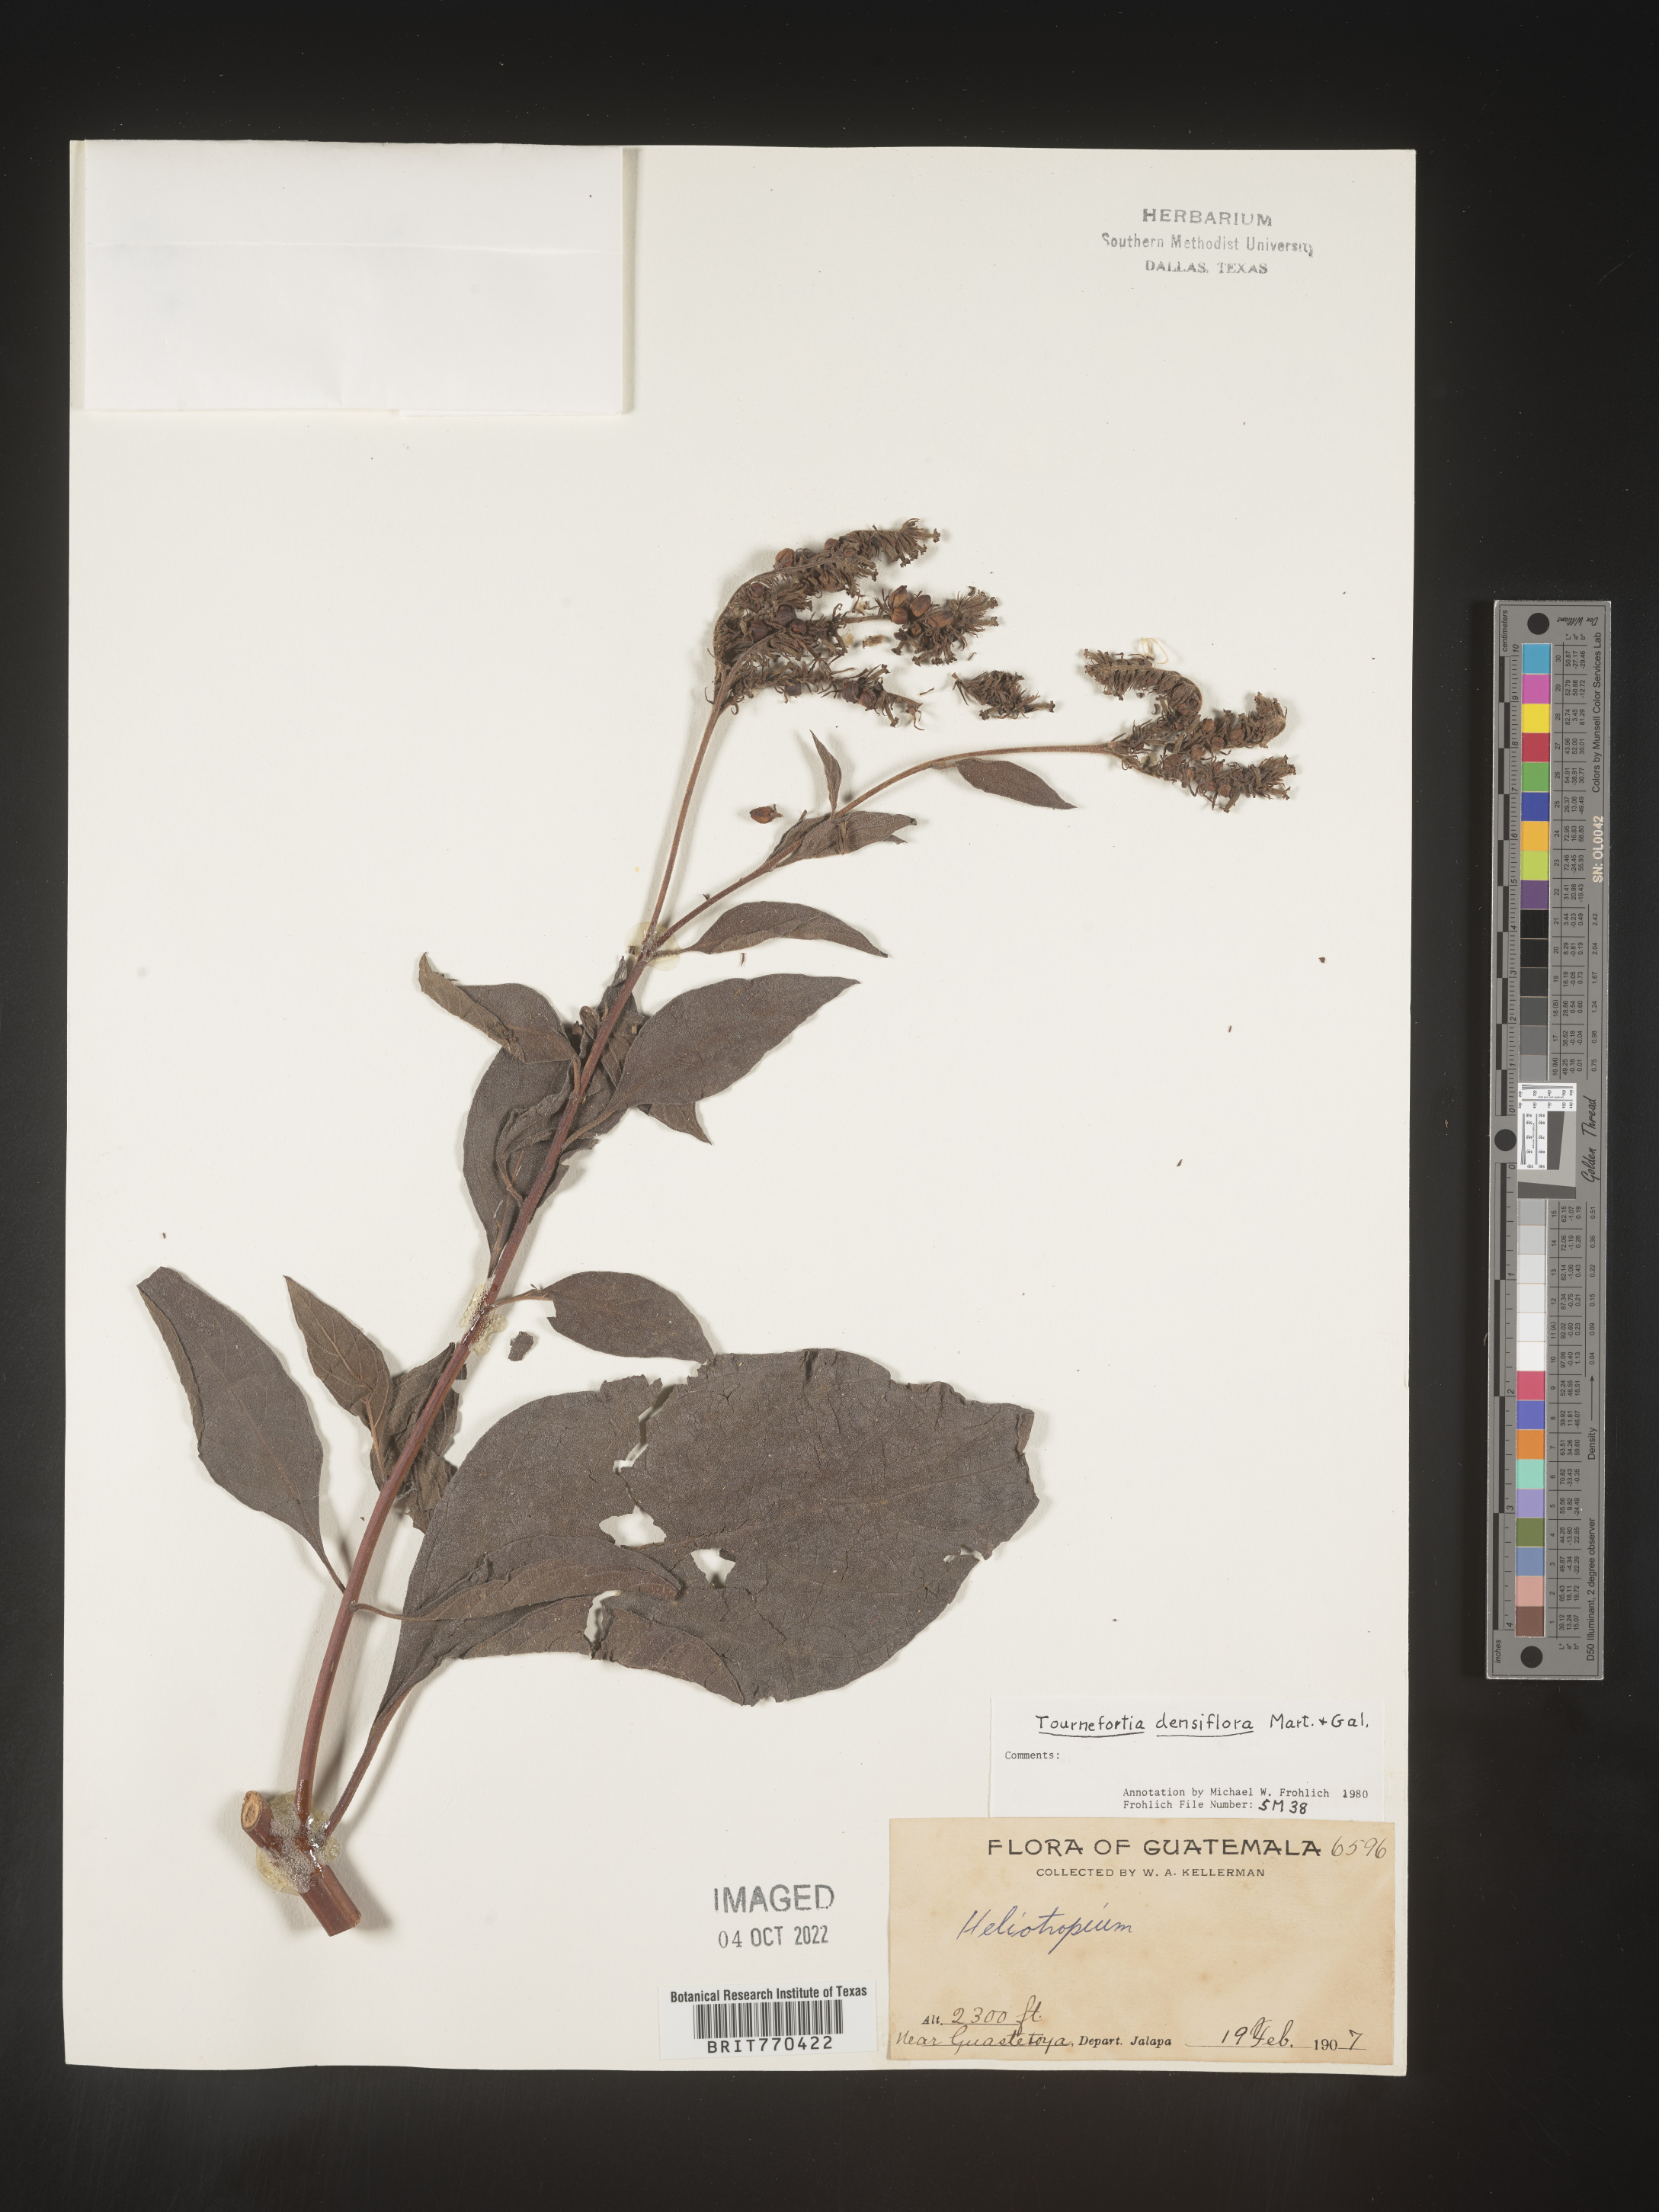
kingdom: Plantae
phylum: Tracheophyta
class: Magnoliopsida
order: Boraginales
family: Heliotropiaceae
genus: Tournefortia
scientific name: Tournefortia
